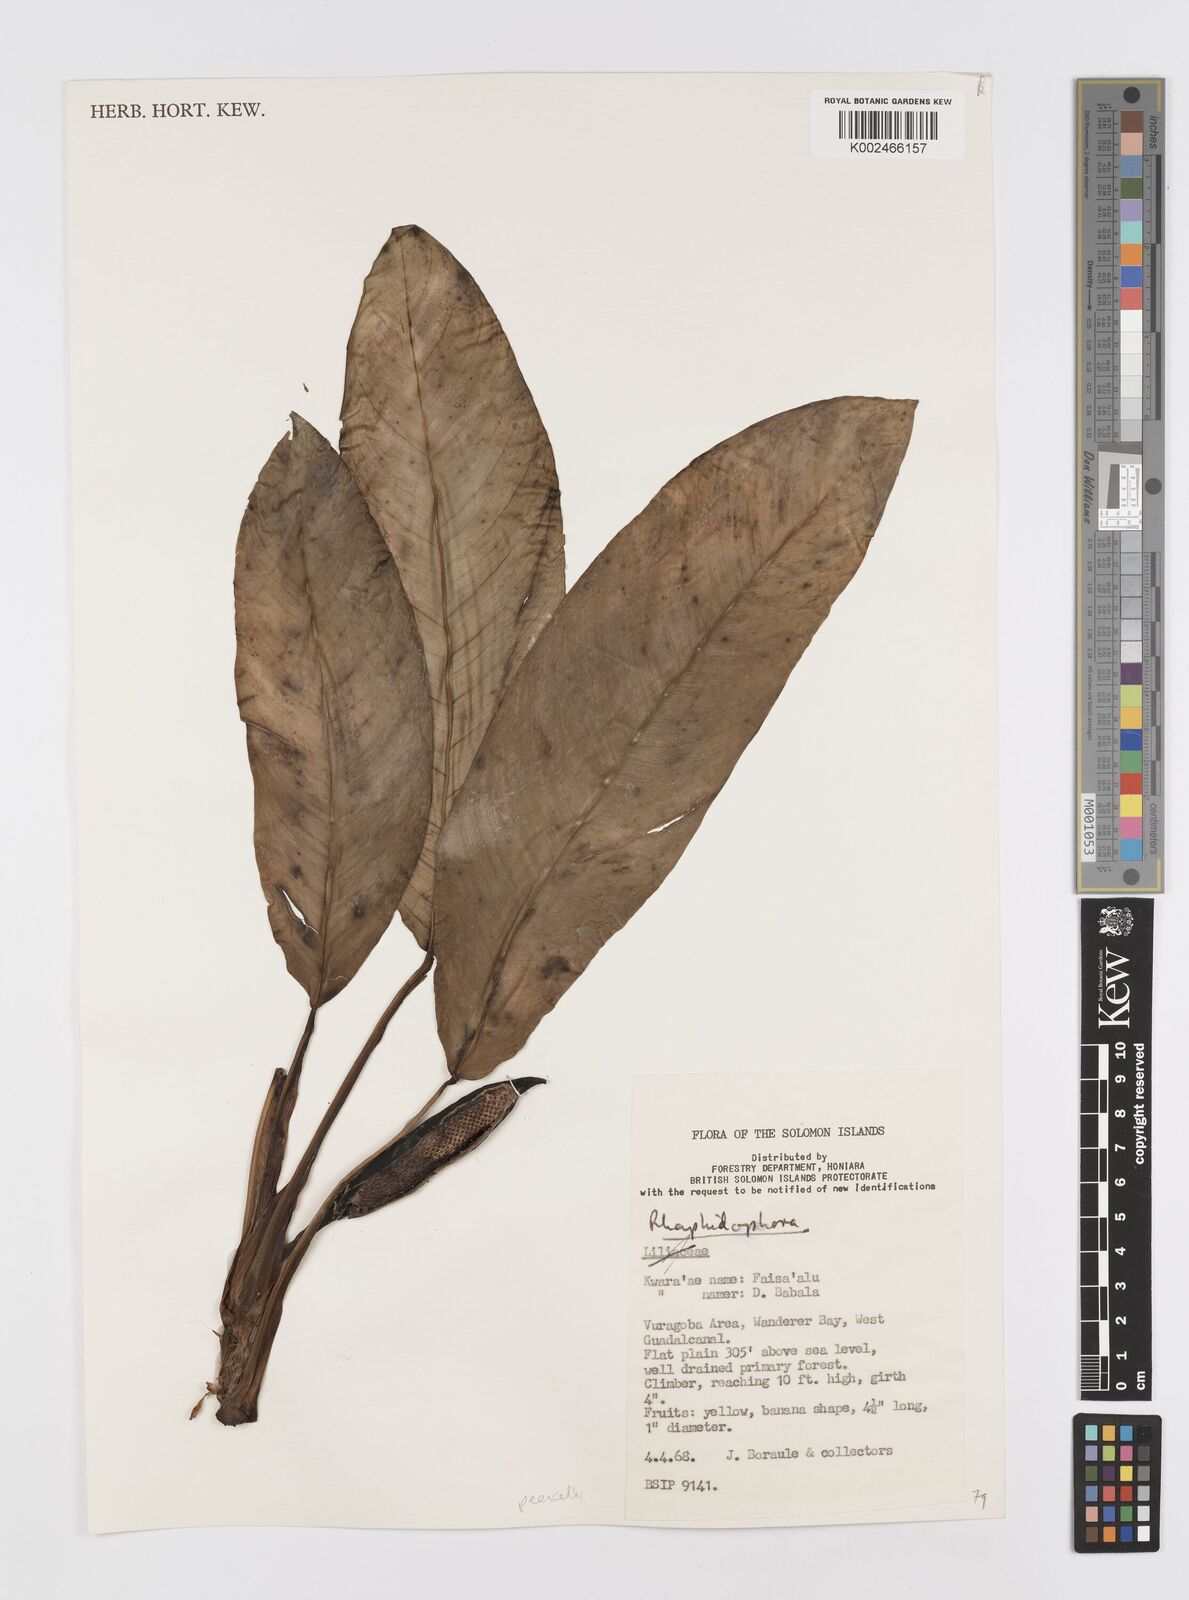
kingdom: Plantae
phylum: Tracheophyta
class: Liliopsida
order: Alismatales
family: Araceae
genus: Rhaphidophora
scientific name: Rhaphidophora schlechteri
